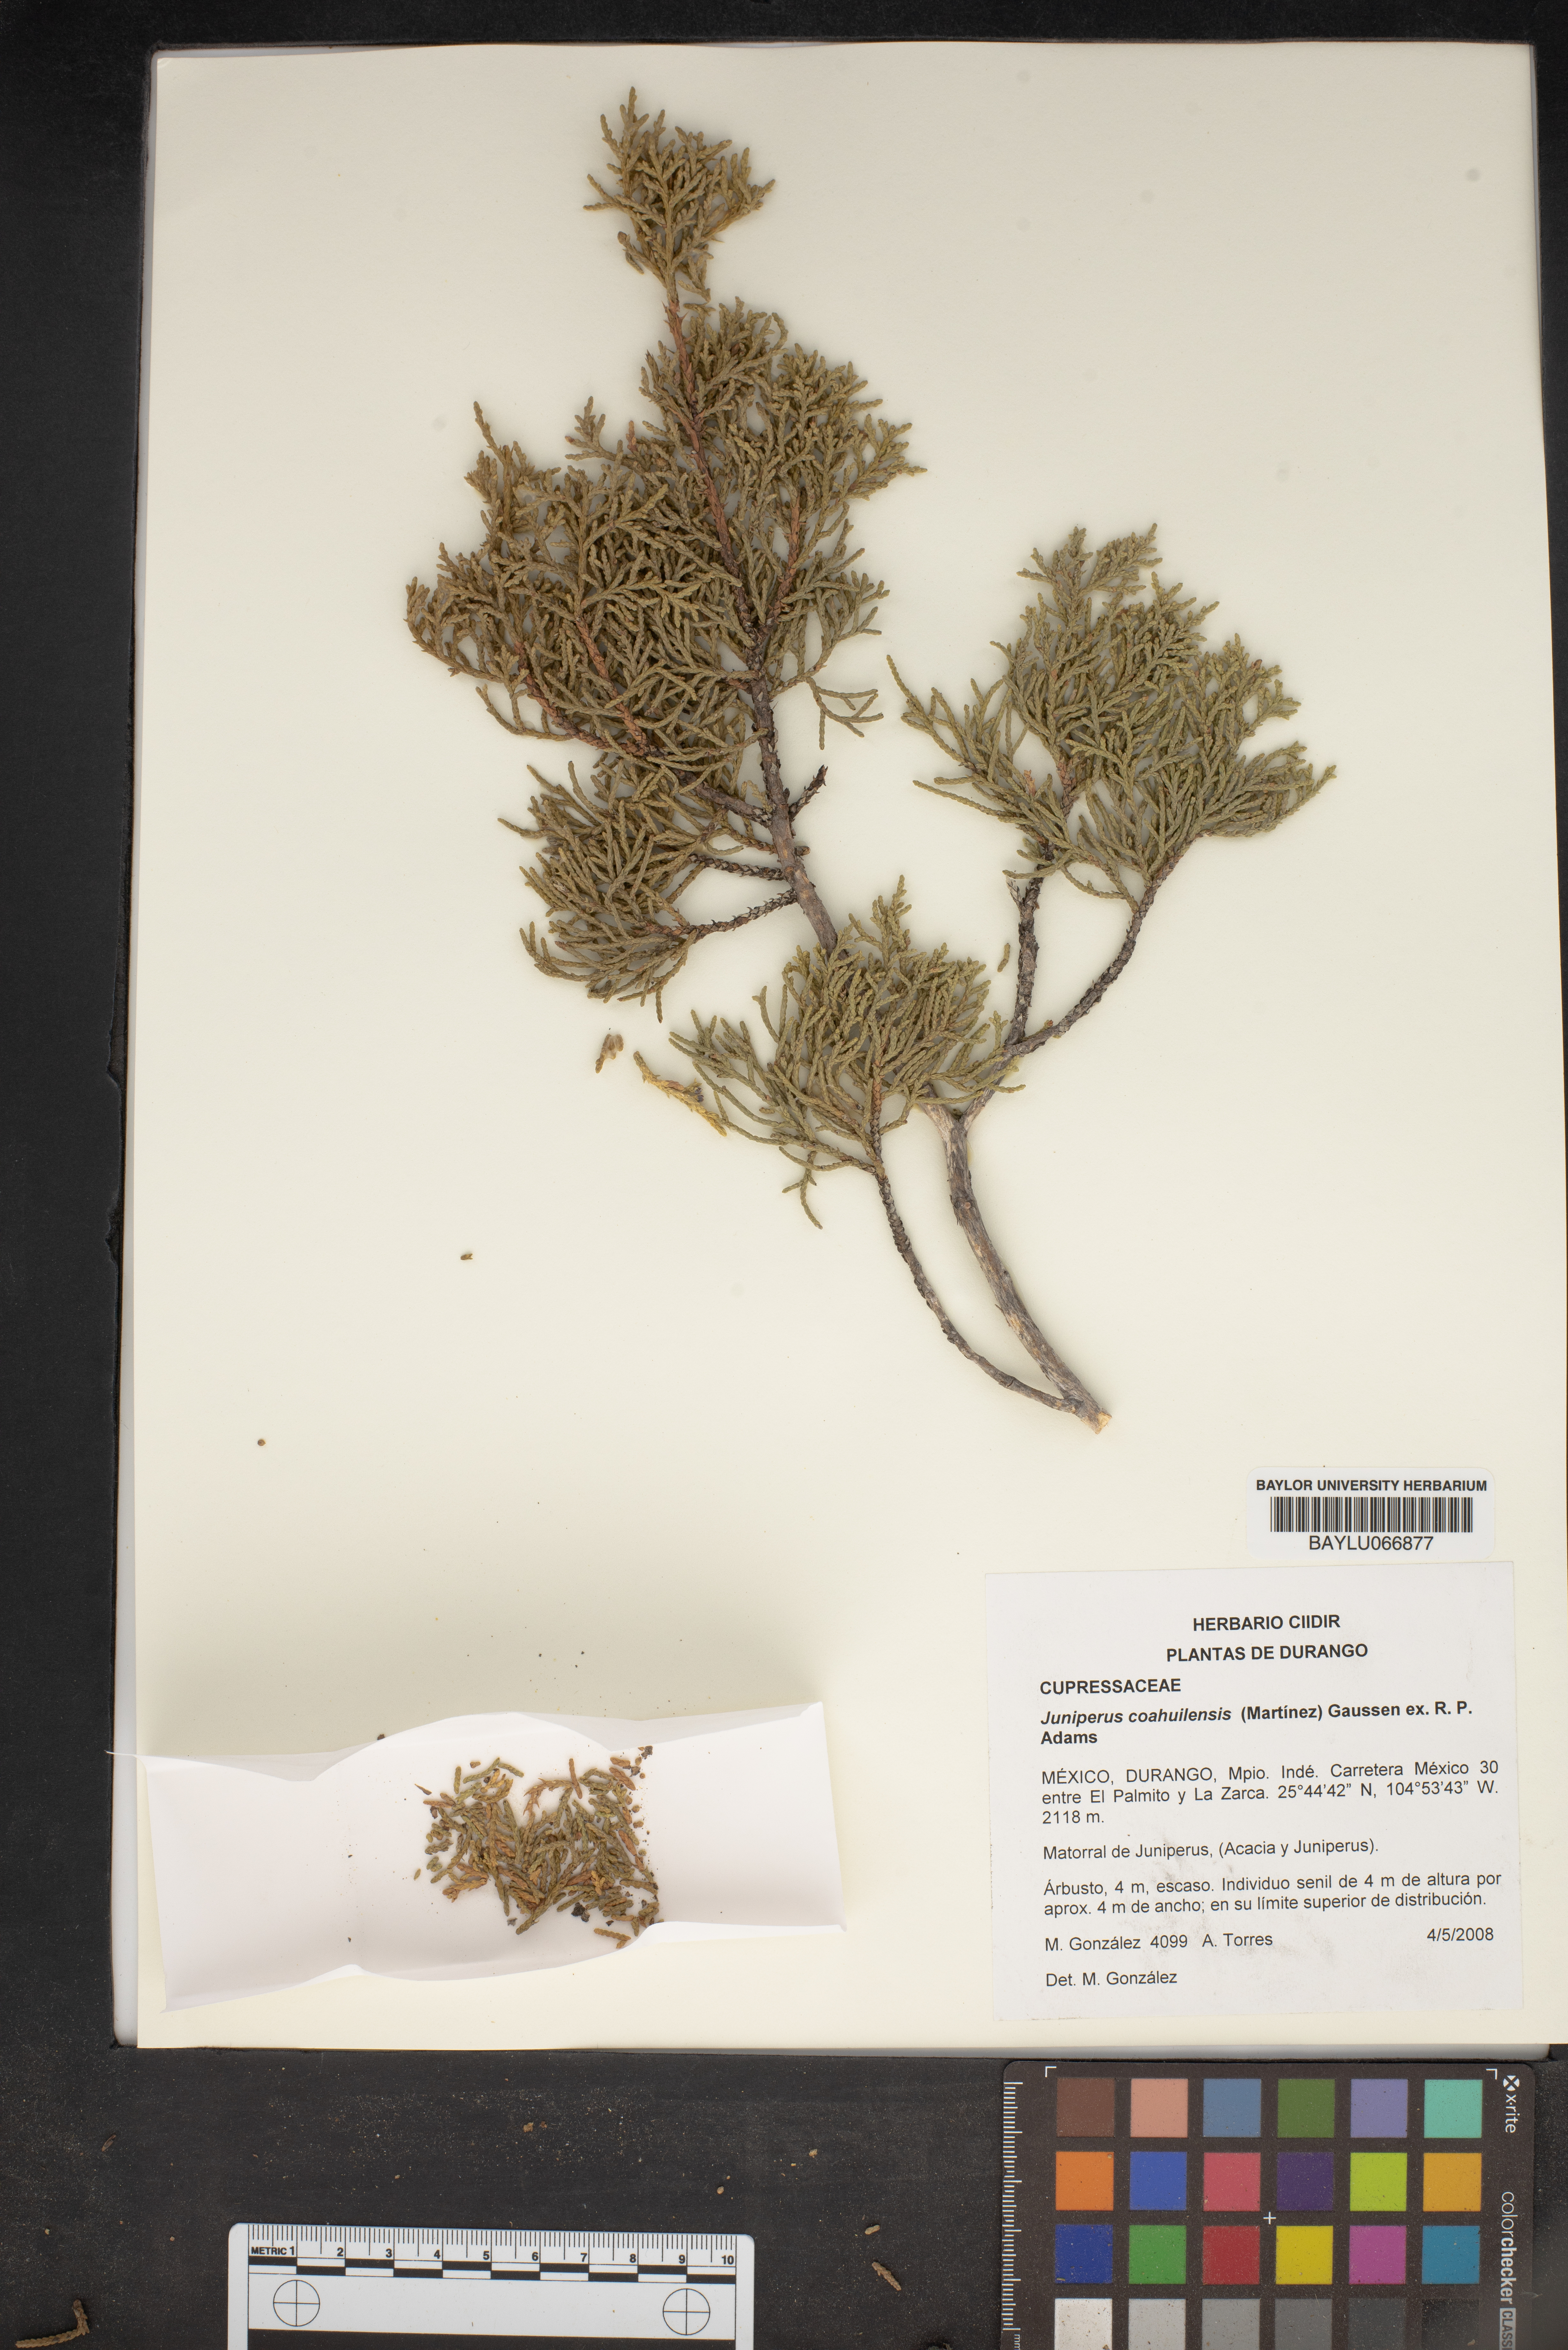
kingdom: Plantae
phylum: Tracheophyta
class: Pinopsida
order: Pinales
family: Cupressaceae
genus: Juniperus
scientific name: Juniperus coahuilensis
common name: Roseberry
